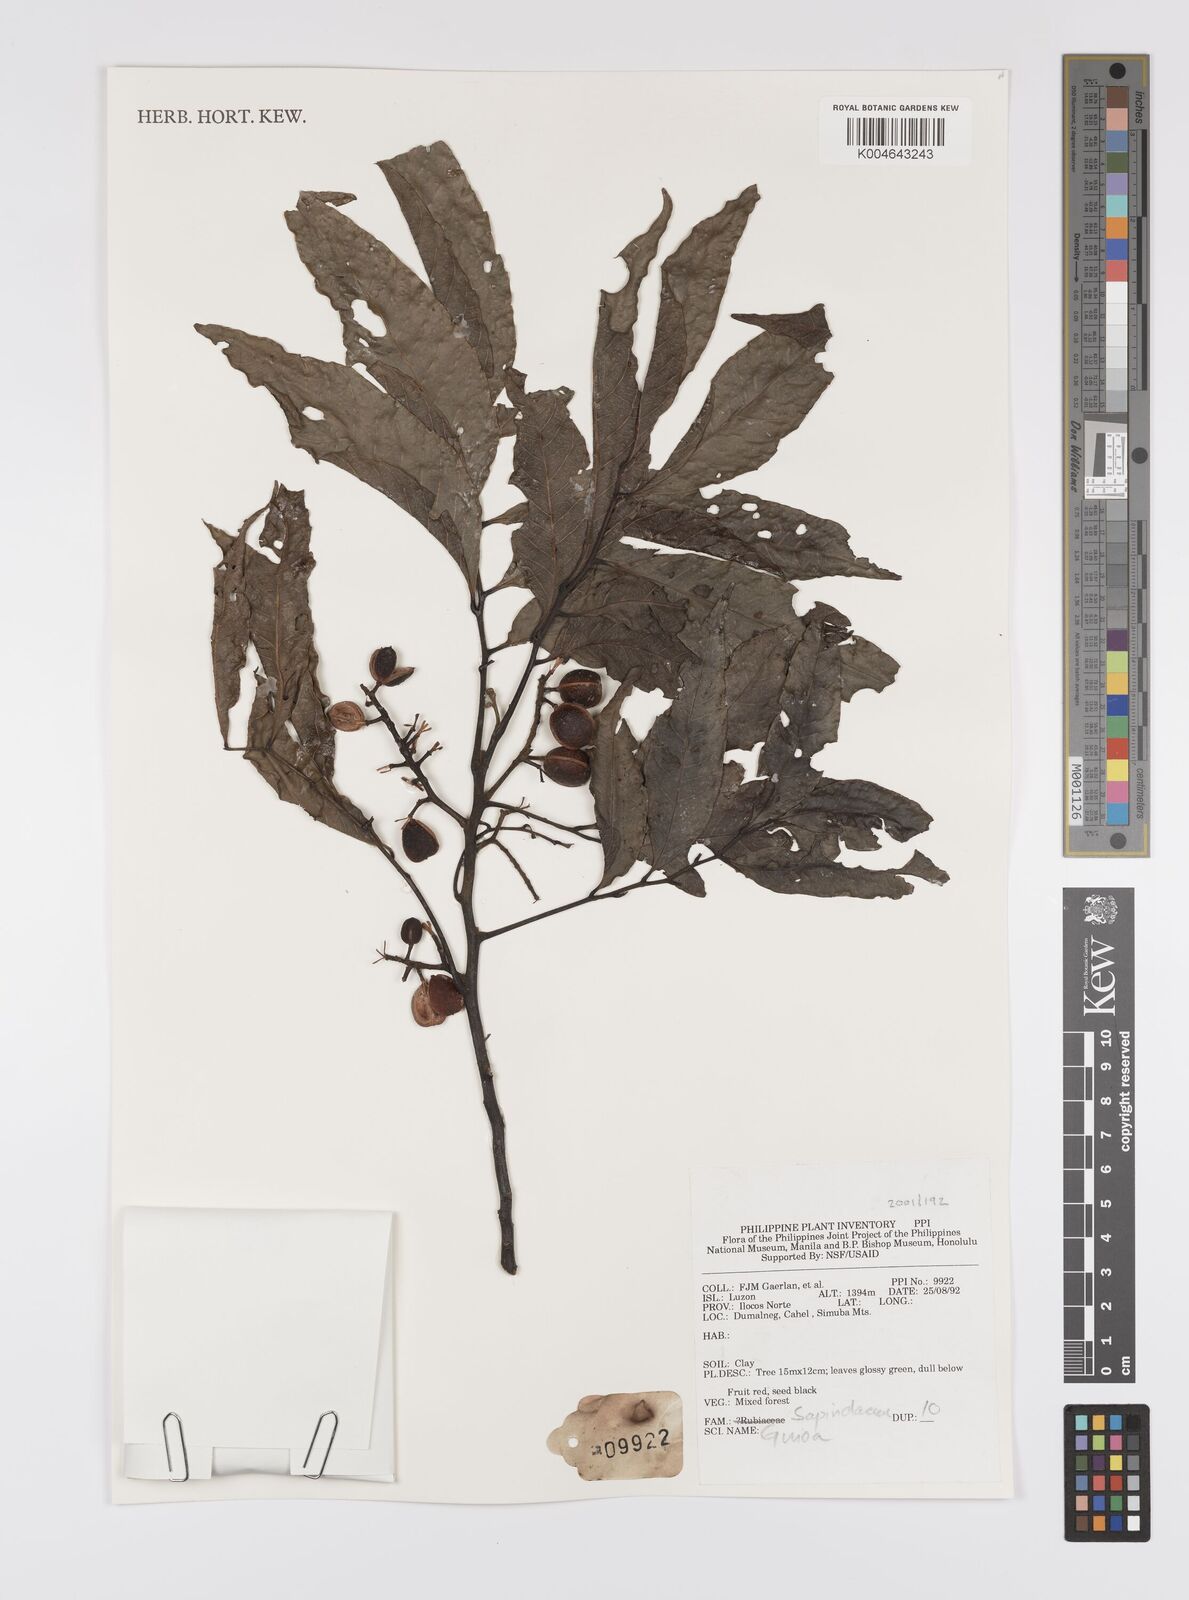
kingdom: Plantae
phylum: Tracheophyta
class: Magnoliopsida
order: Sapindales
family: Sapindaceae
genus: Guioa
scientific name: Guioa
